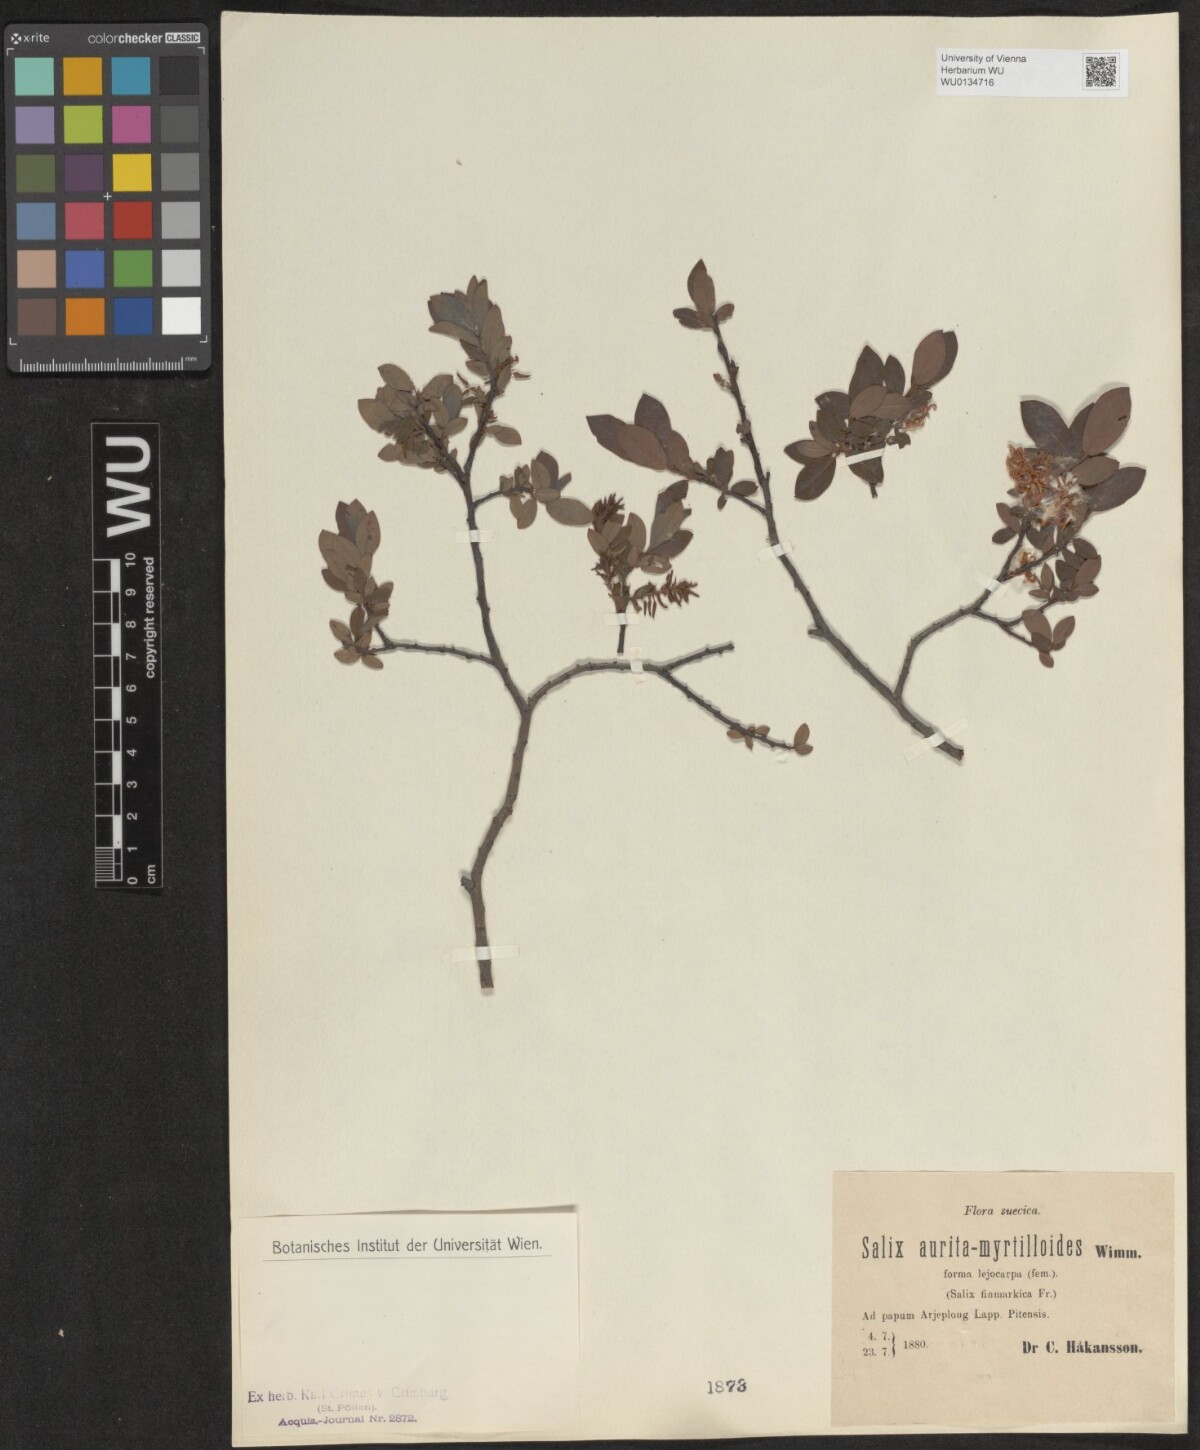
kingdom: Plantae
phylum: Tracheophyta
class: Magnoliopsida
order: Malpighiales
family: Salicaceae
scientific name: Salicaceae
